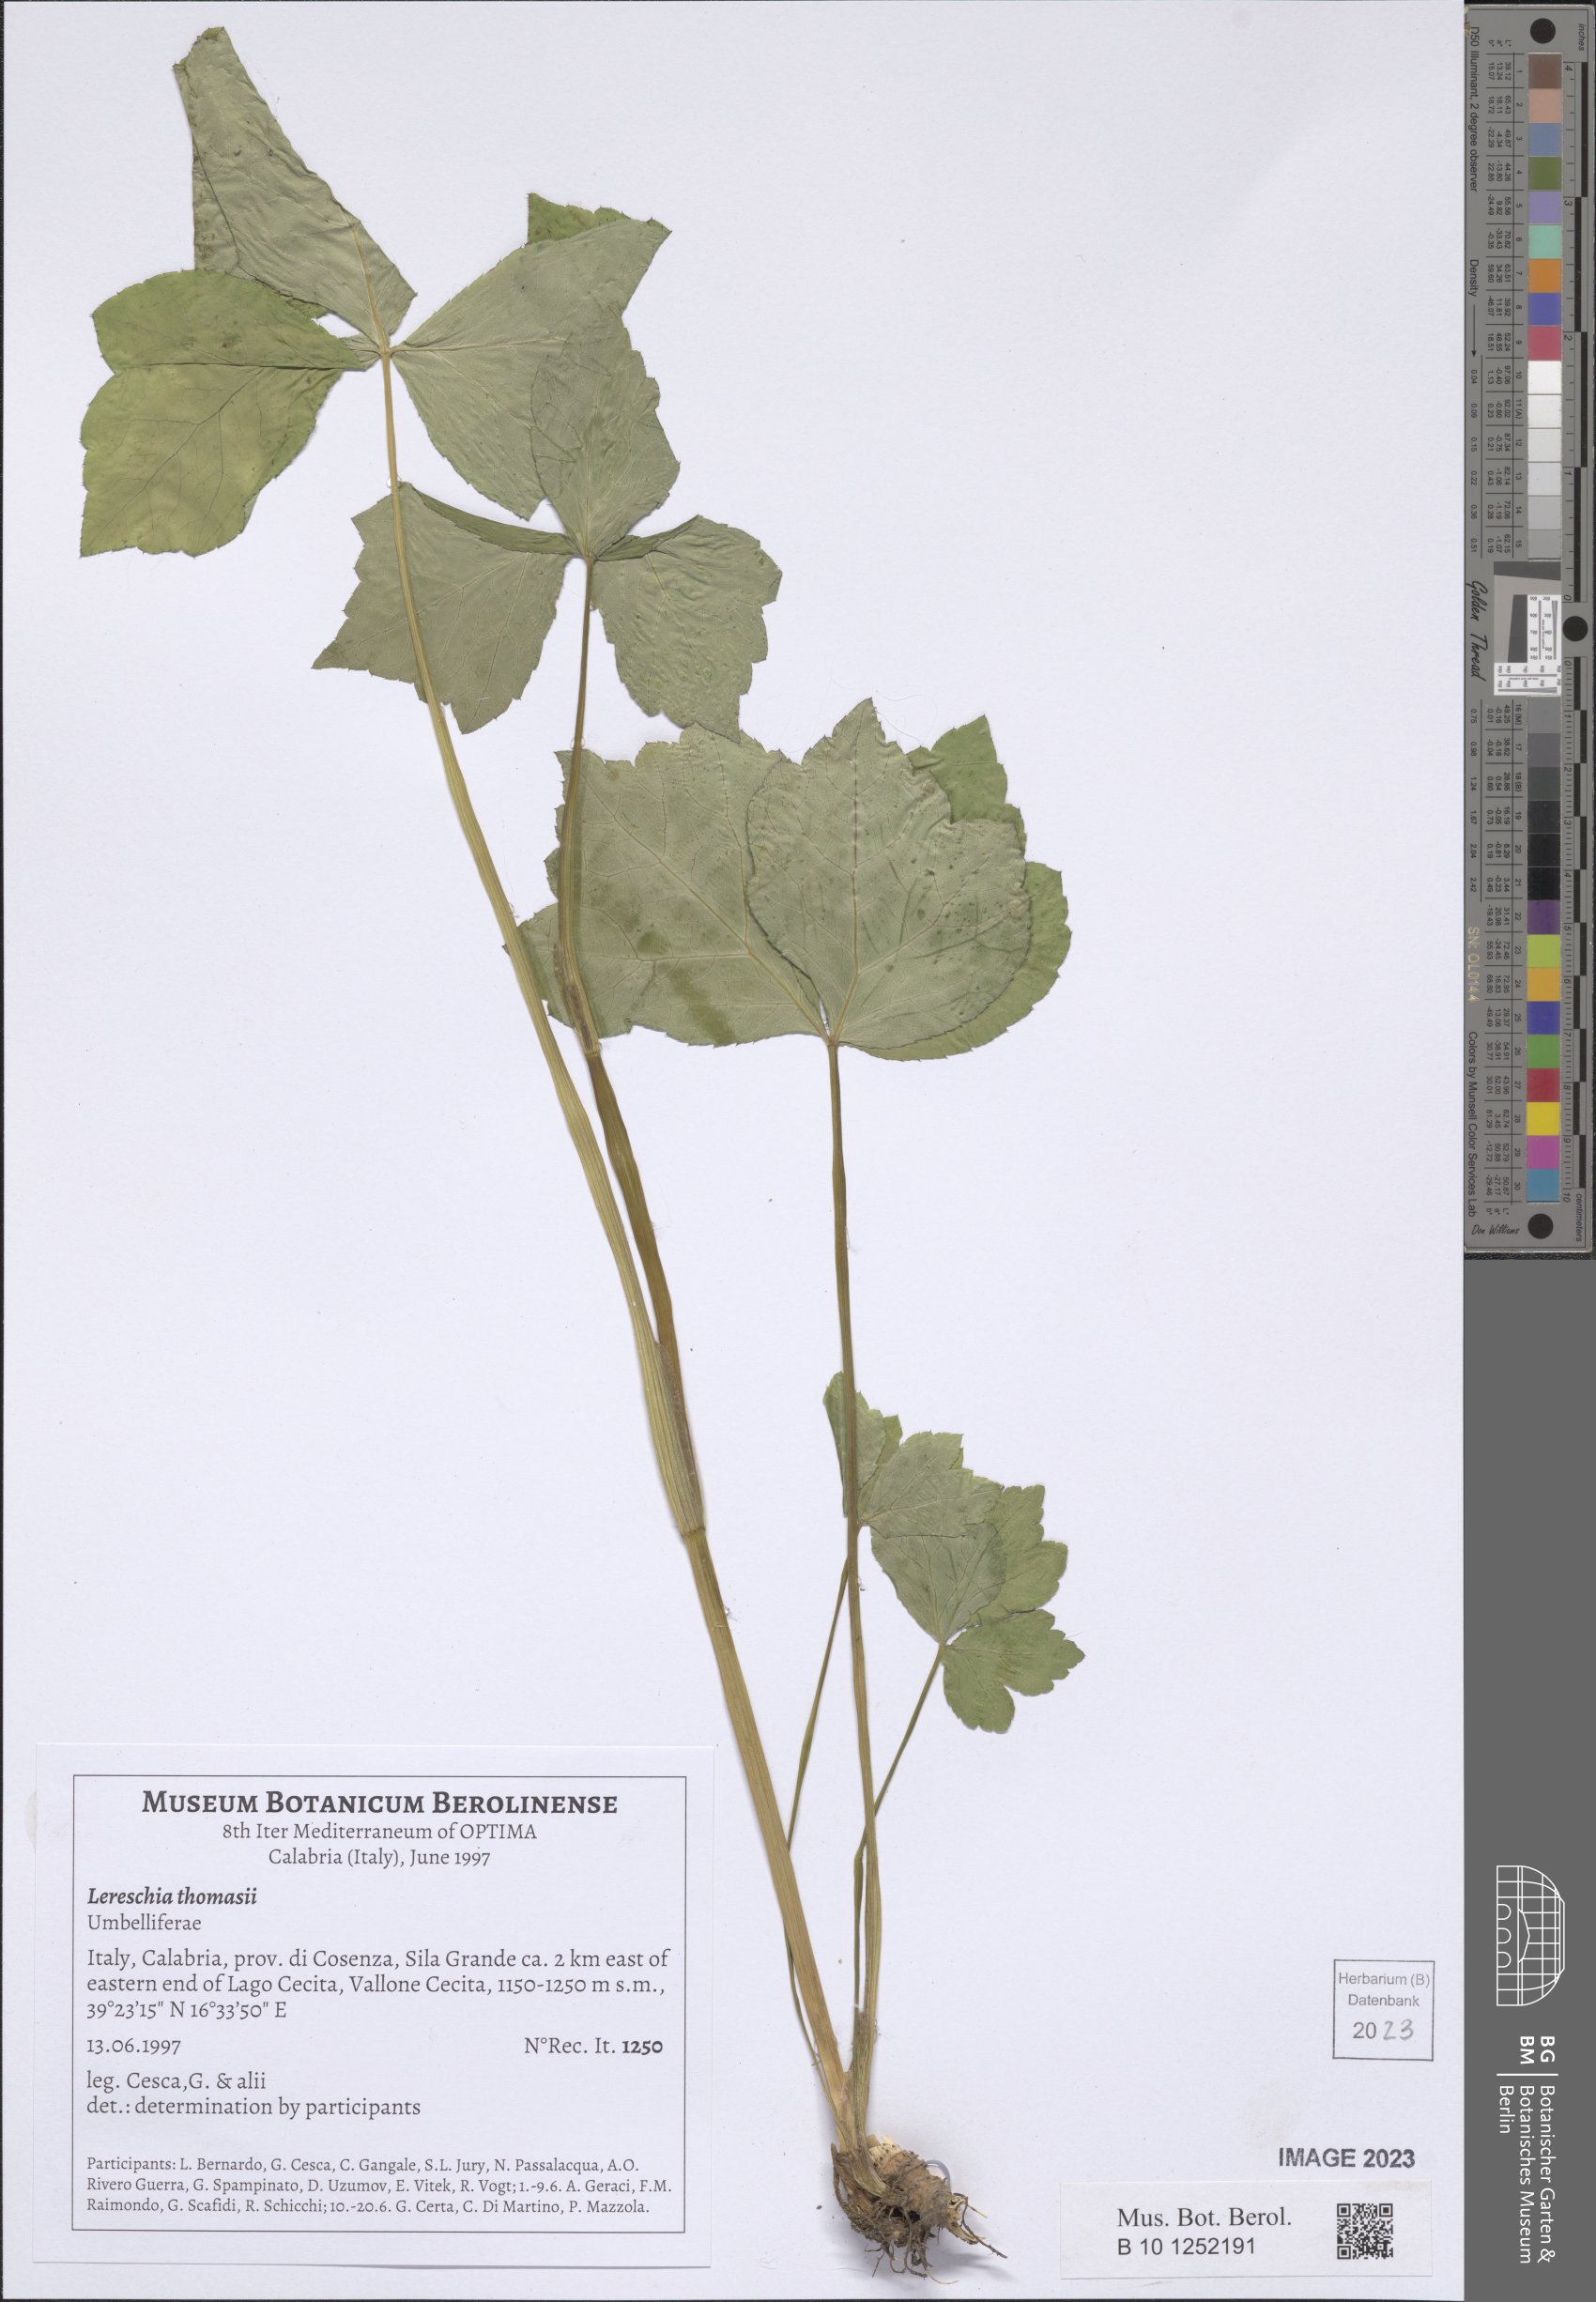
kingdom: Plantae
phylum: Tracheophyta
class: Magnoliopsida
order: Apiales
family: Apiaceae
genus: Cryptotaenia
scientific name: Cryptotaenia thomasii
